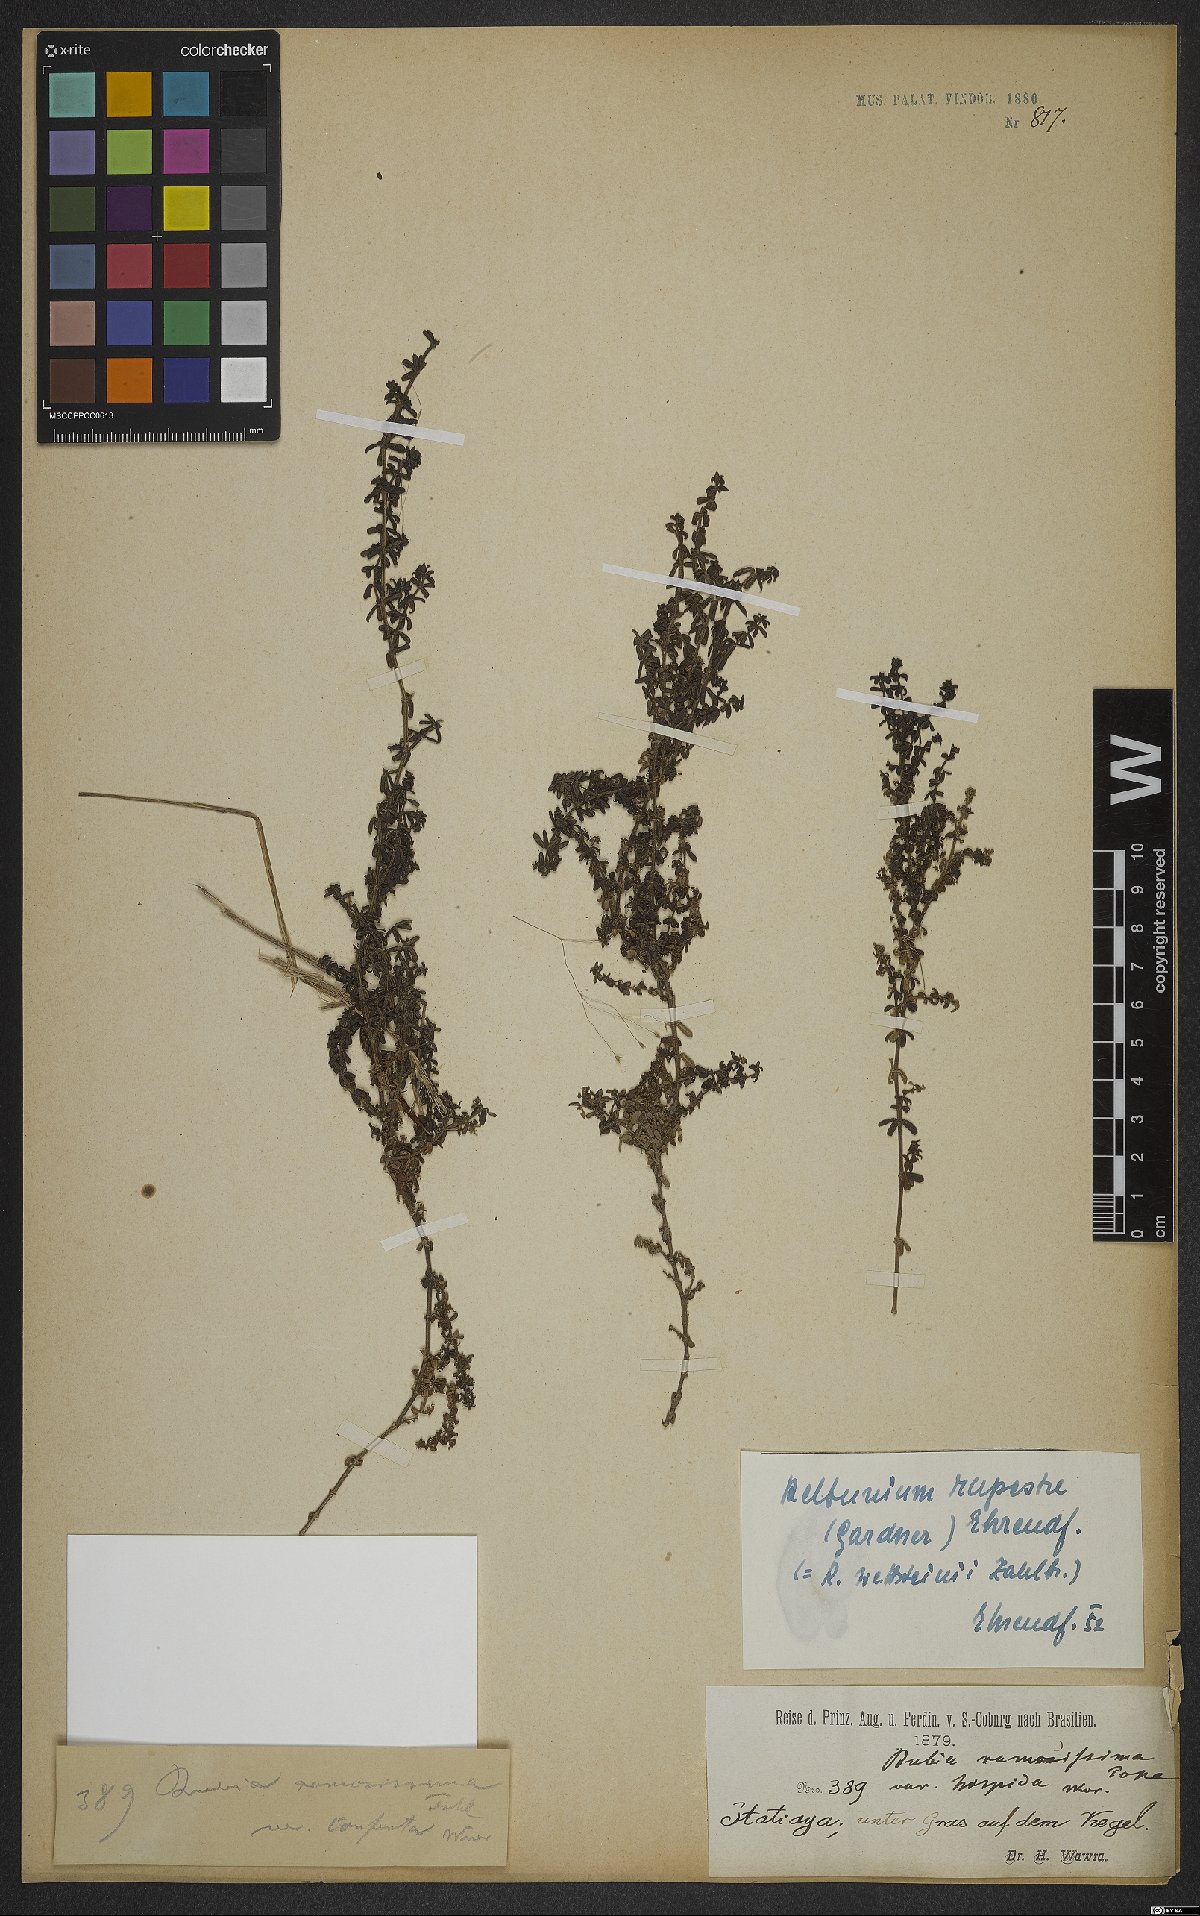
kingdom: Plantae
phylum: Tracheophyta
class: Magnoliopsida
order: Gentianales
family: Rubiaceae
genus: Galium
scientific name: Galium hypocarpium
